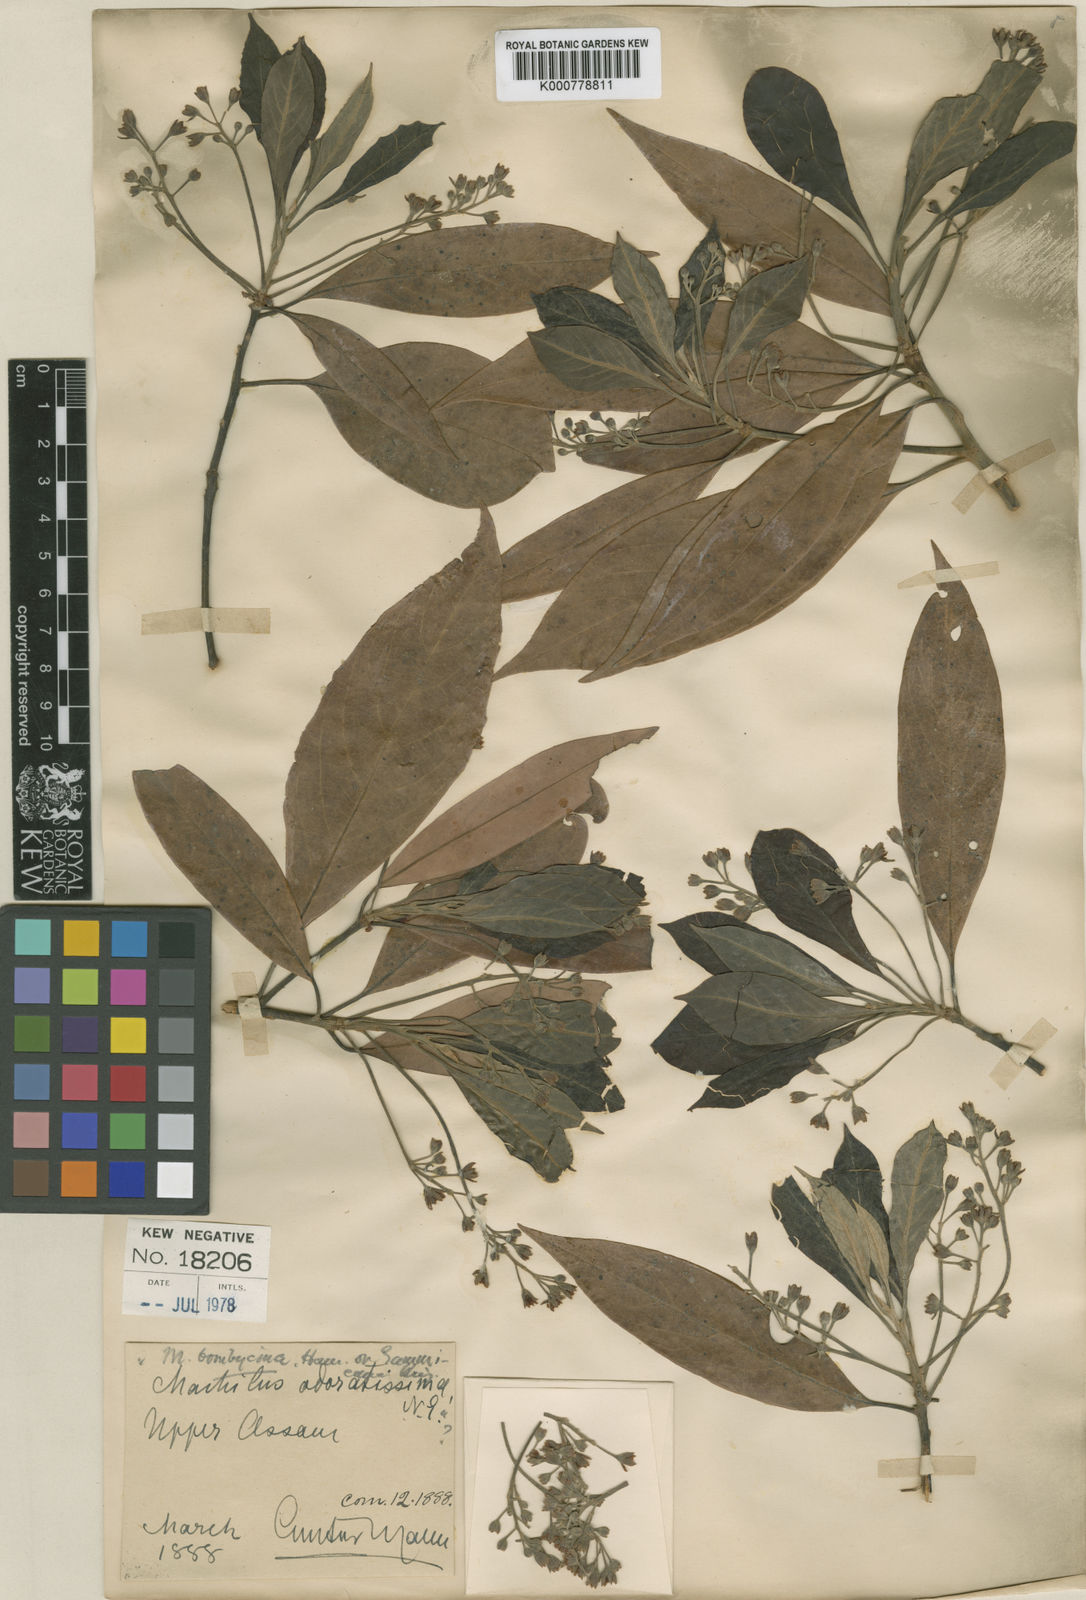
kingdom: Plantae
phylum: Tracheophyta
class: Magnoliopsida
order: Laurales
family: Lauraceae
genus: Machilus
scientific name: Machilus odoratissimus
